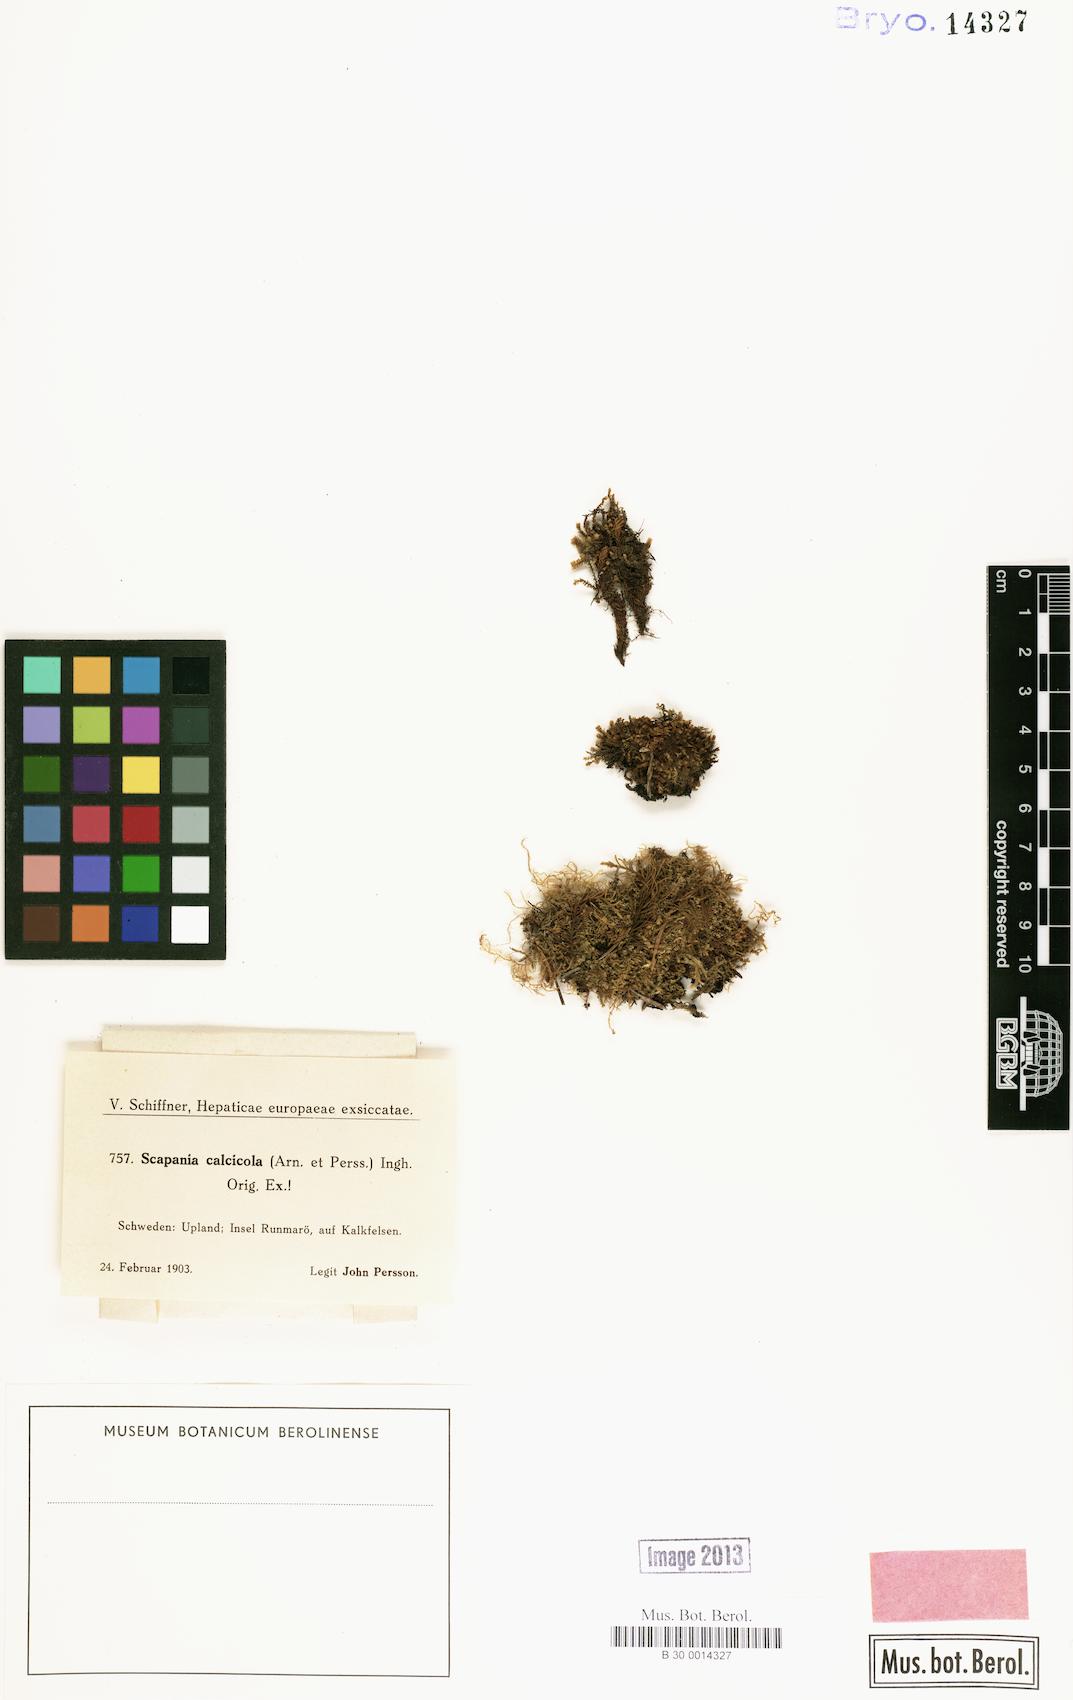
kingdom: Plantae
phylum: Marchantiophyta
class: Jungermanniopsida
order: Jungermanniales
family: Scapaniaceae
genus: Scapania
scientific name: Scapania calcicola
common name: Calcicolous earwort
